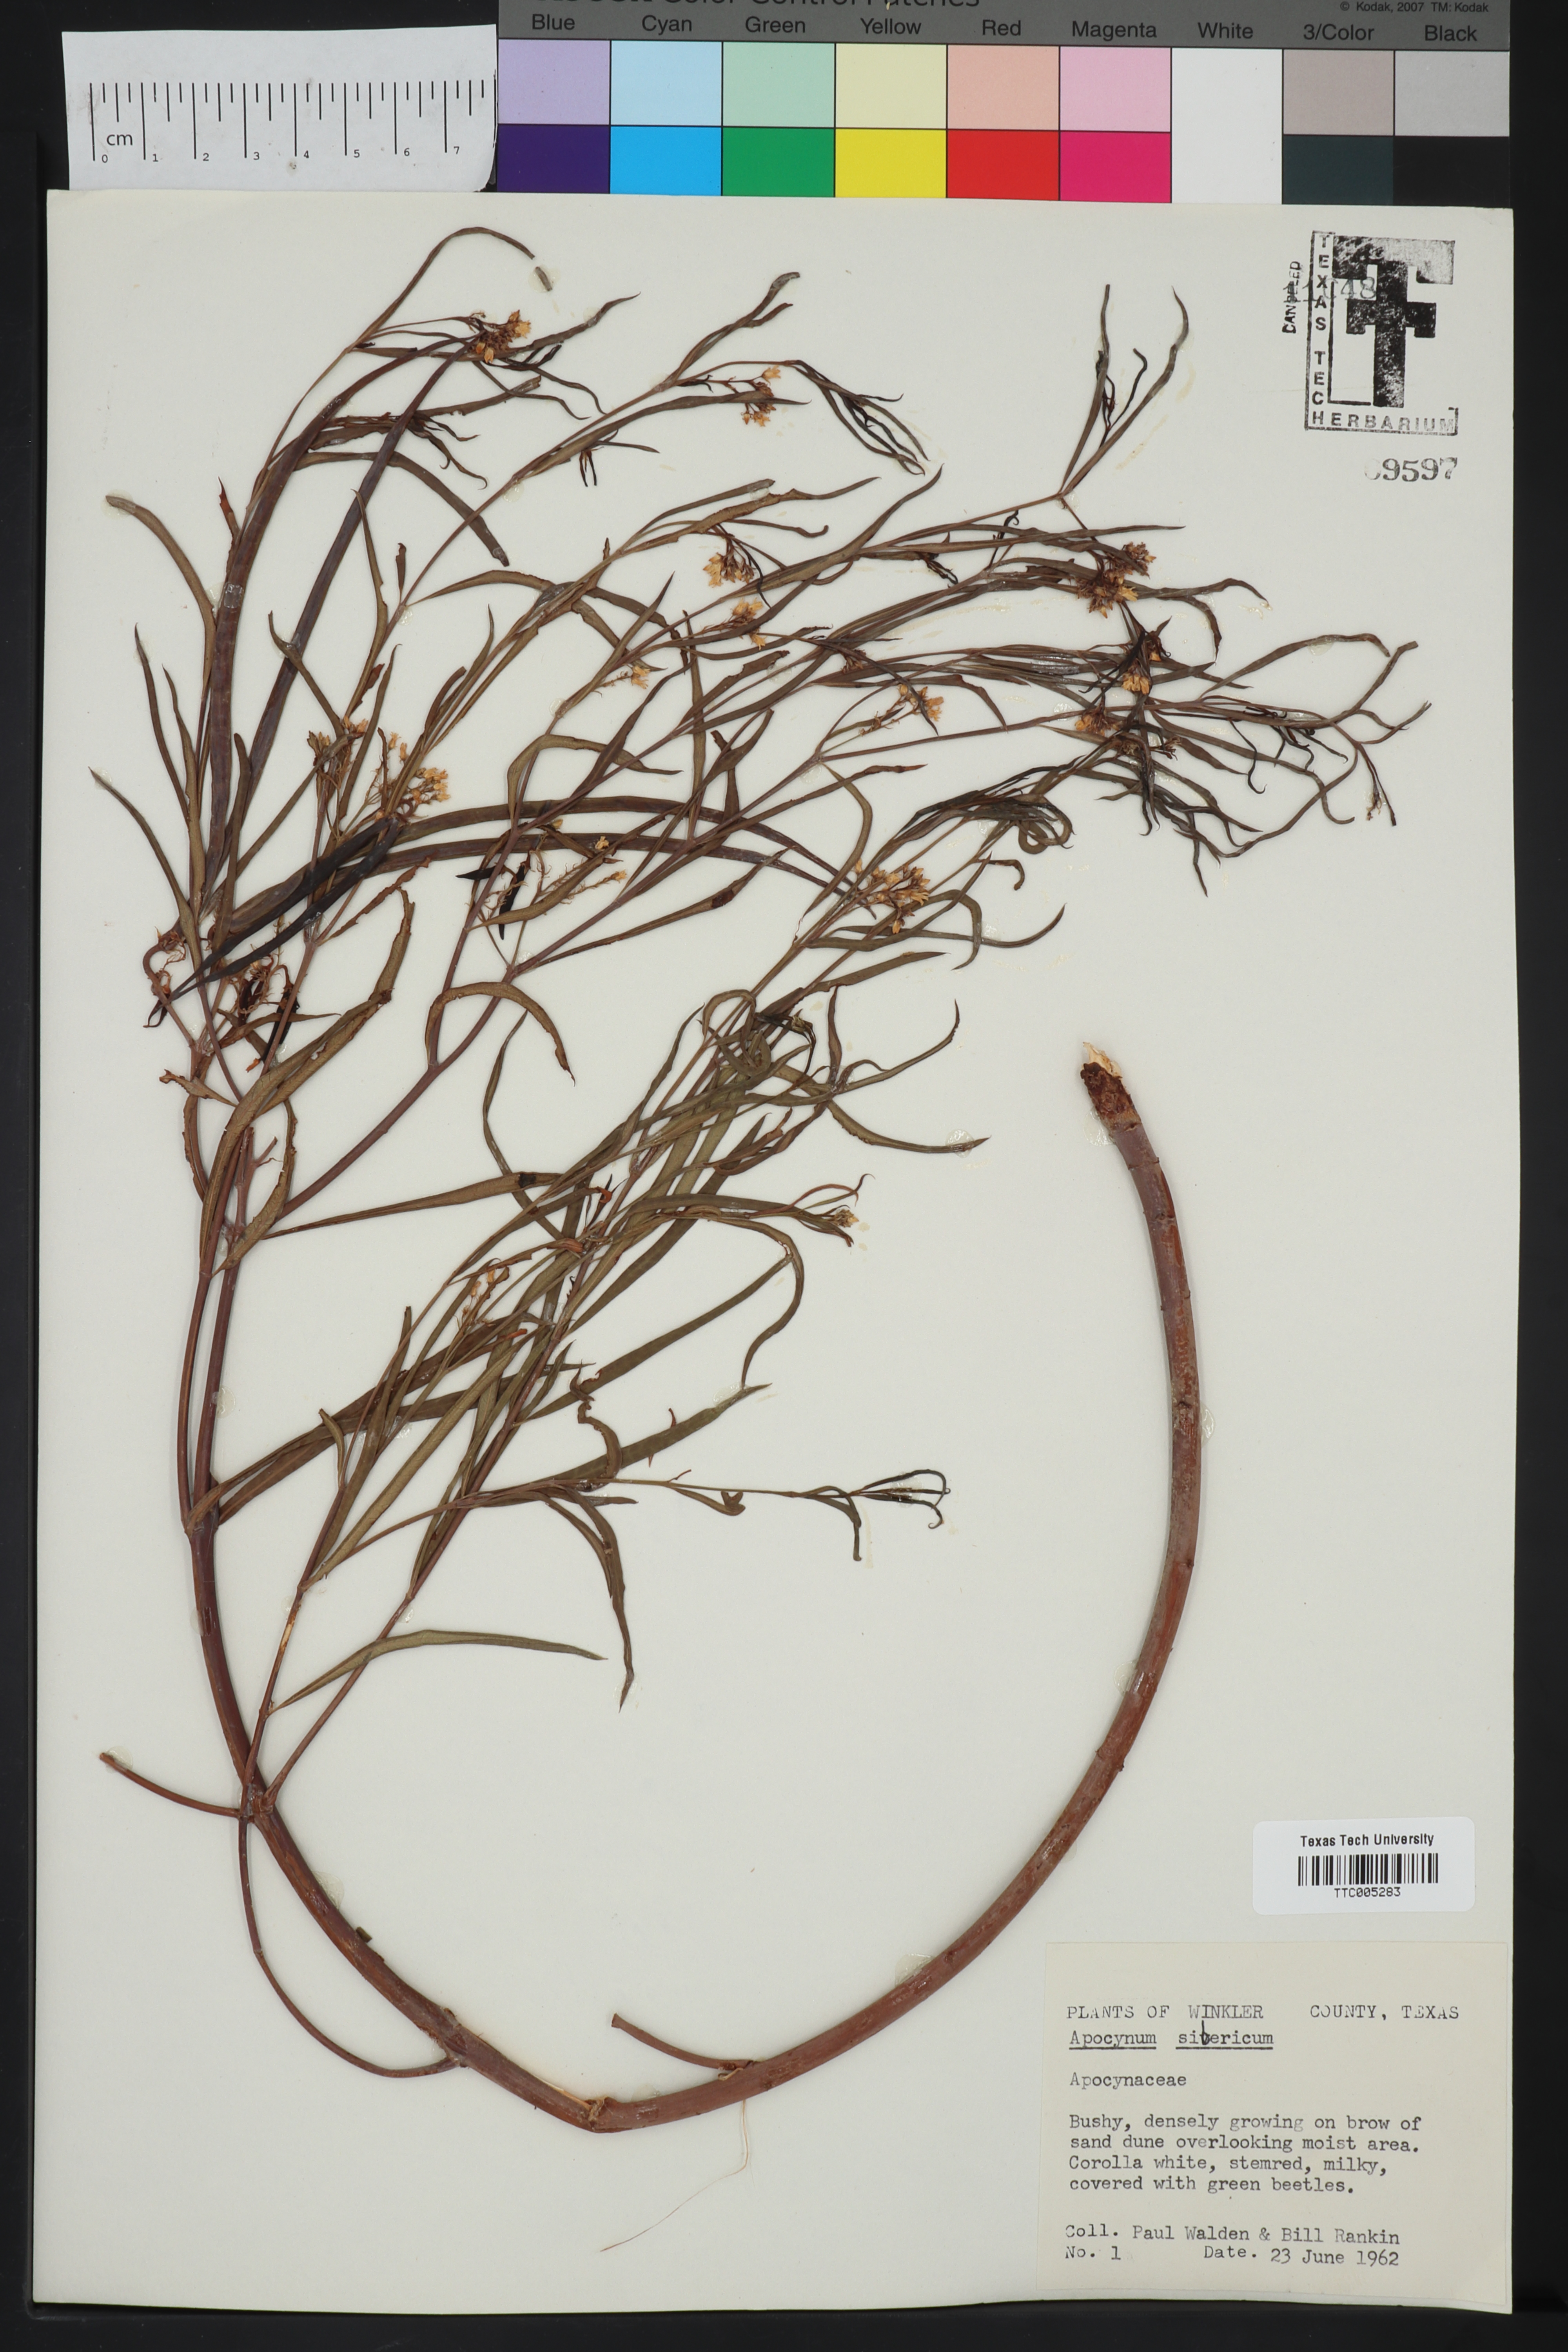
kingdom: Plantae
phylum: Tracheophyta
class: Magnoliopsida
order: Gentianales
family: Apocynaceae
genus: Apocynum
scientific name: Apocynum sibiricum
